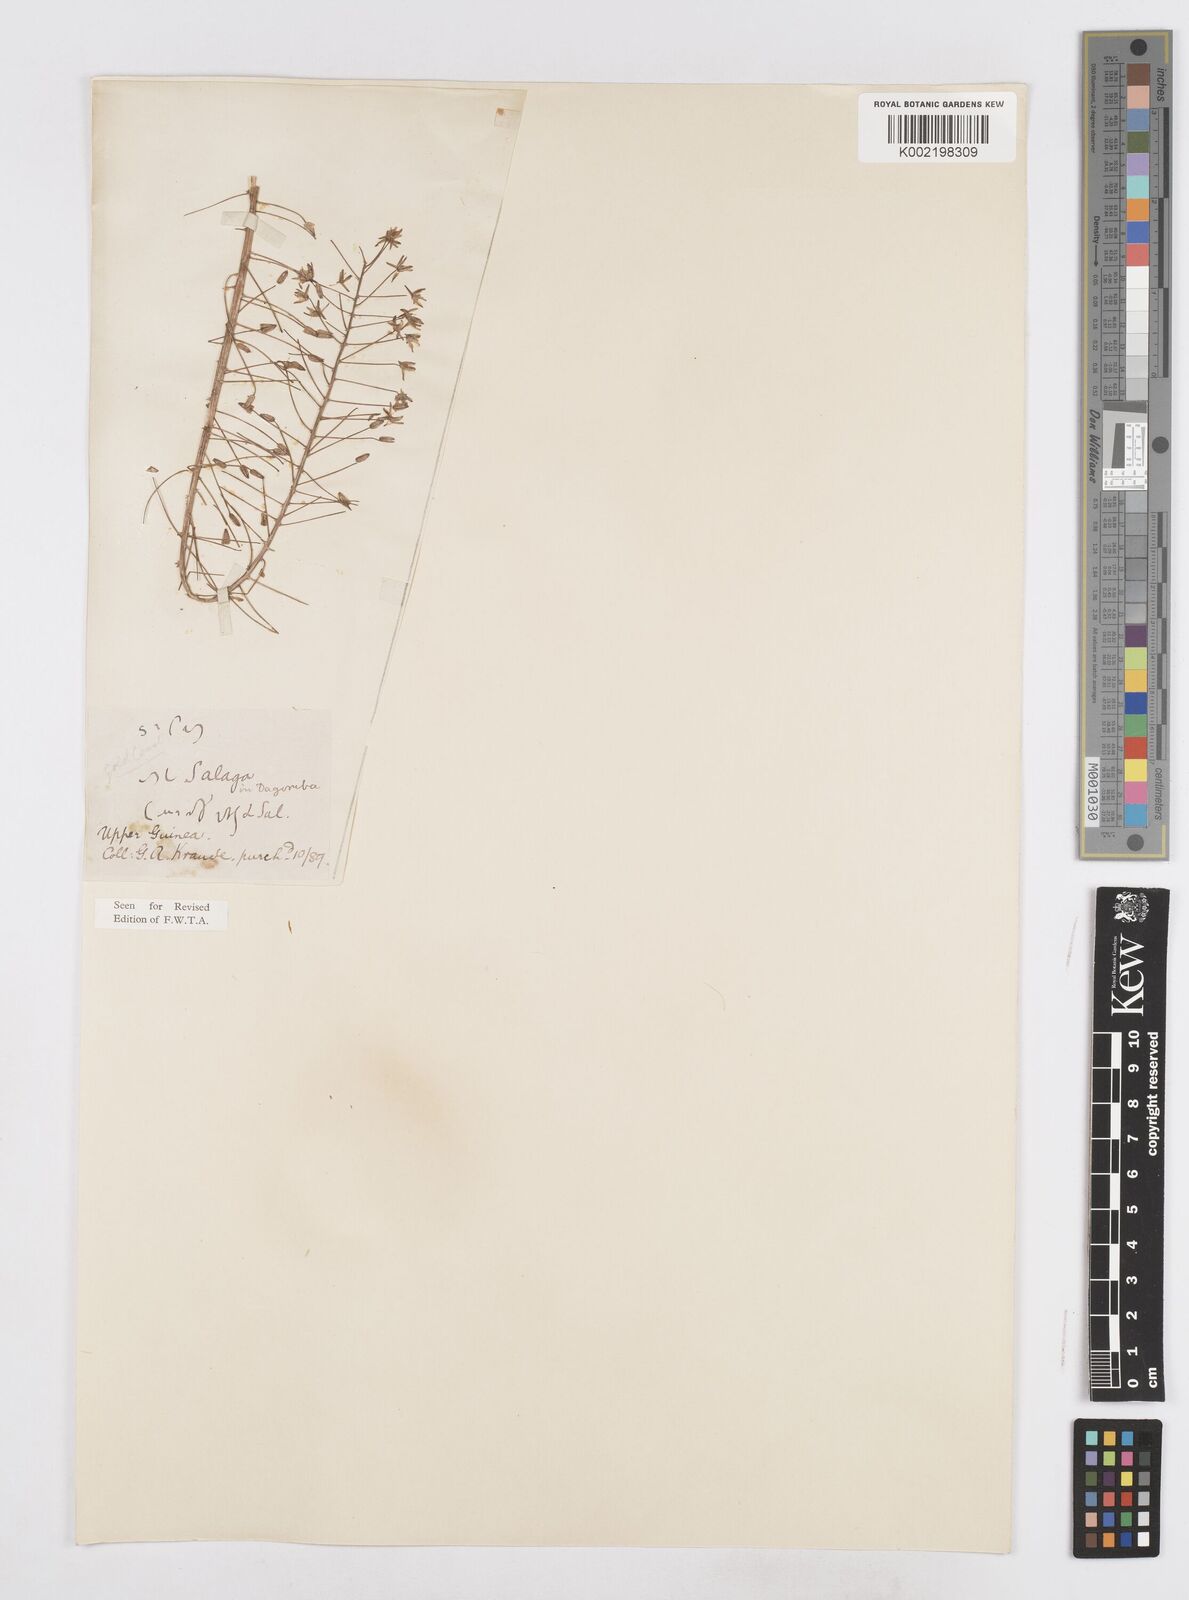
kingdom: Plantae
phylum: Tracheophyta
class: Liliopsida
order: Asparagales
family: Asparagaceae
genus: Drimia
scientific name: Drimia altissima
